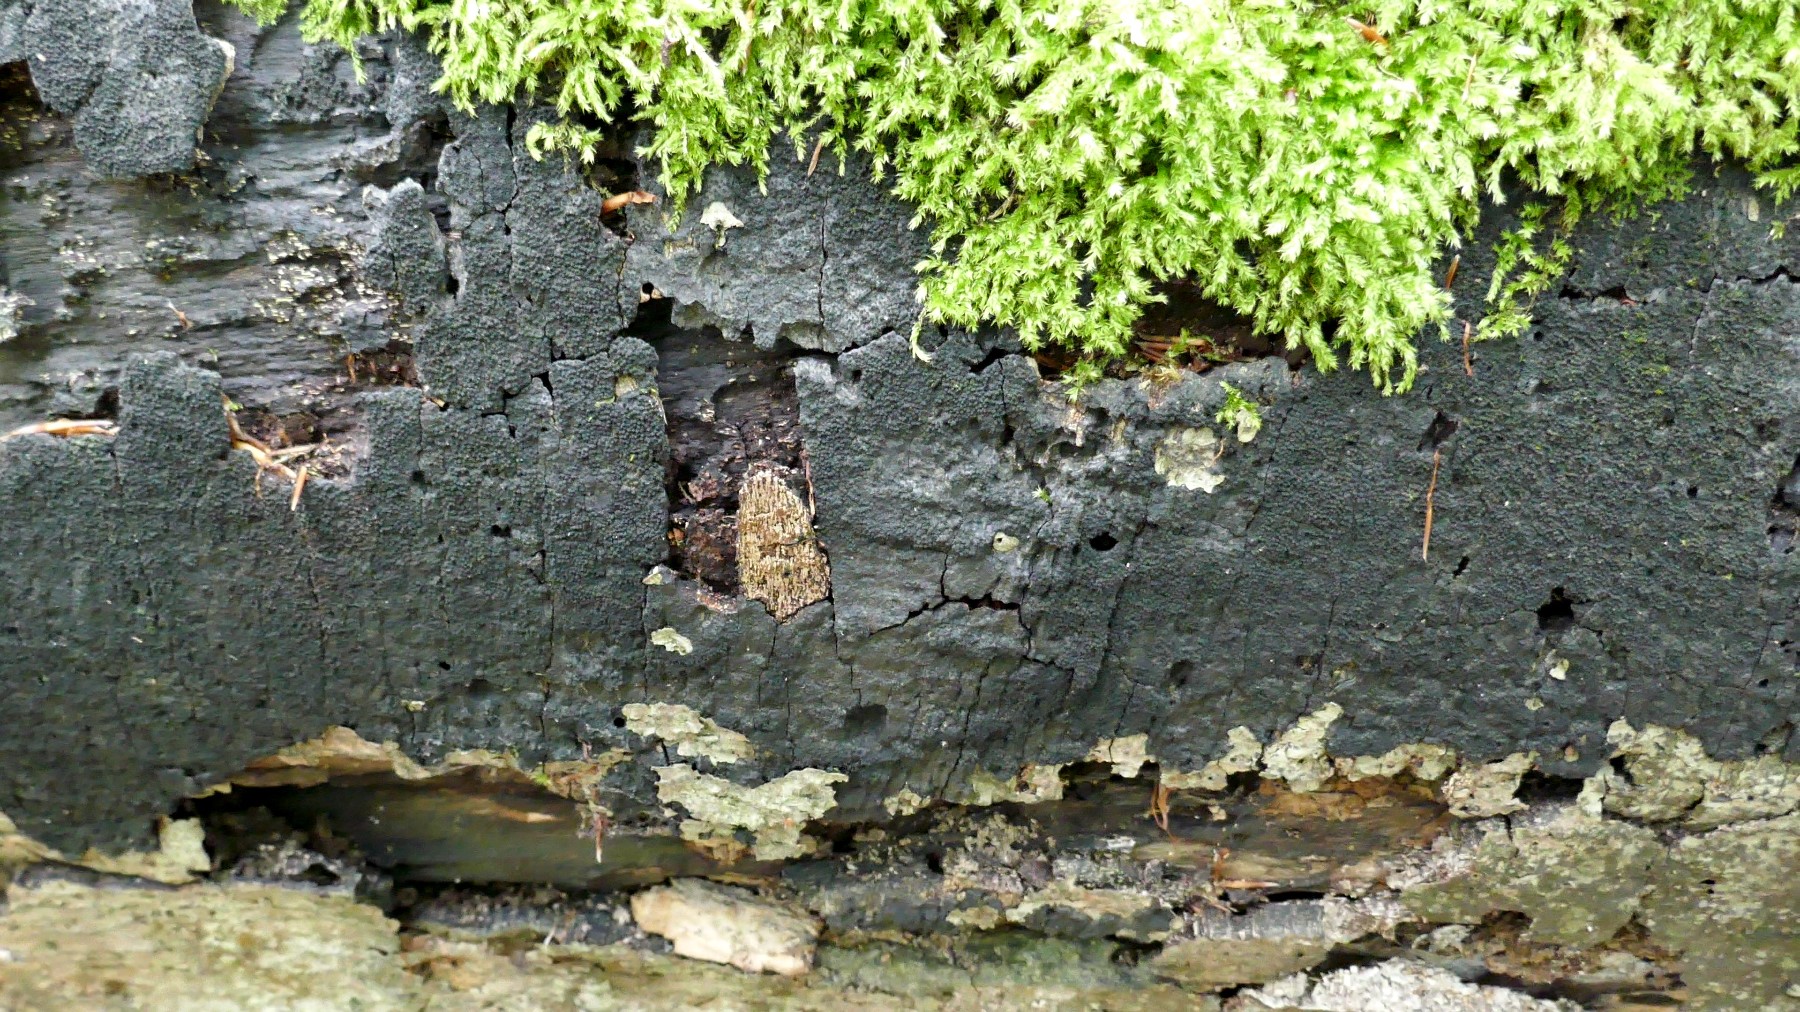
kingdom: Fungi
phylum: Ascomycota
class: Sordariomycetes
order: Xylariales
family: Diatrypaceae
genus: Eutypa
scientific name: Eutypa spinosa
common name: grov kulskorpe
